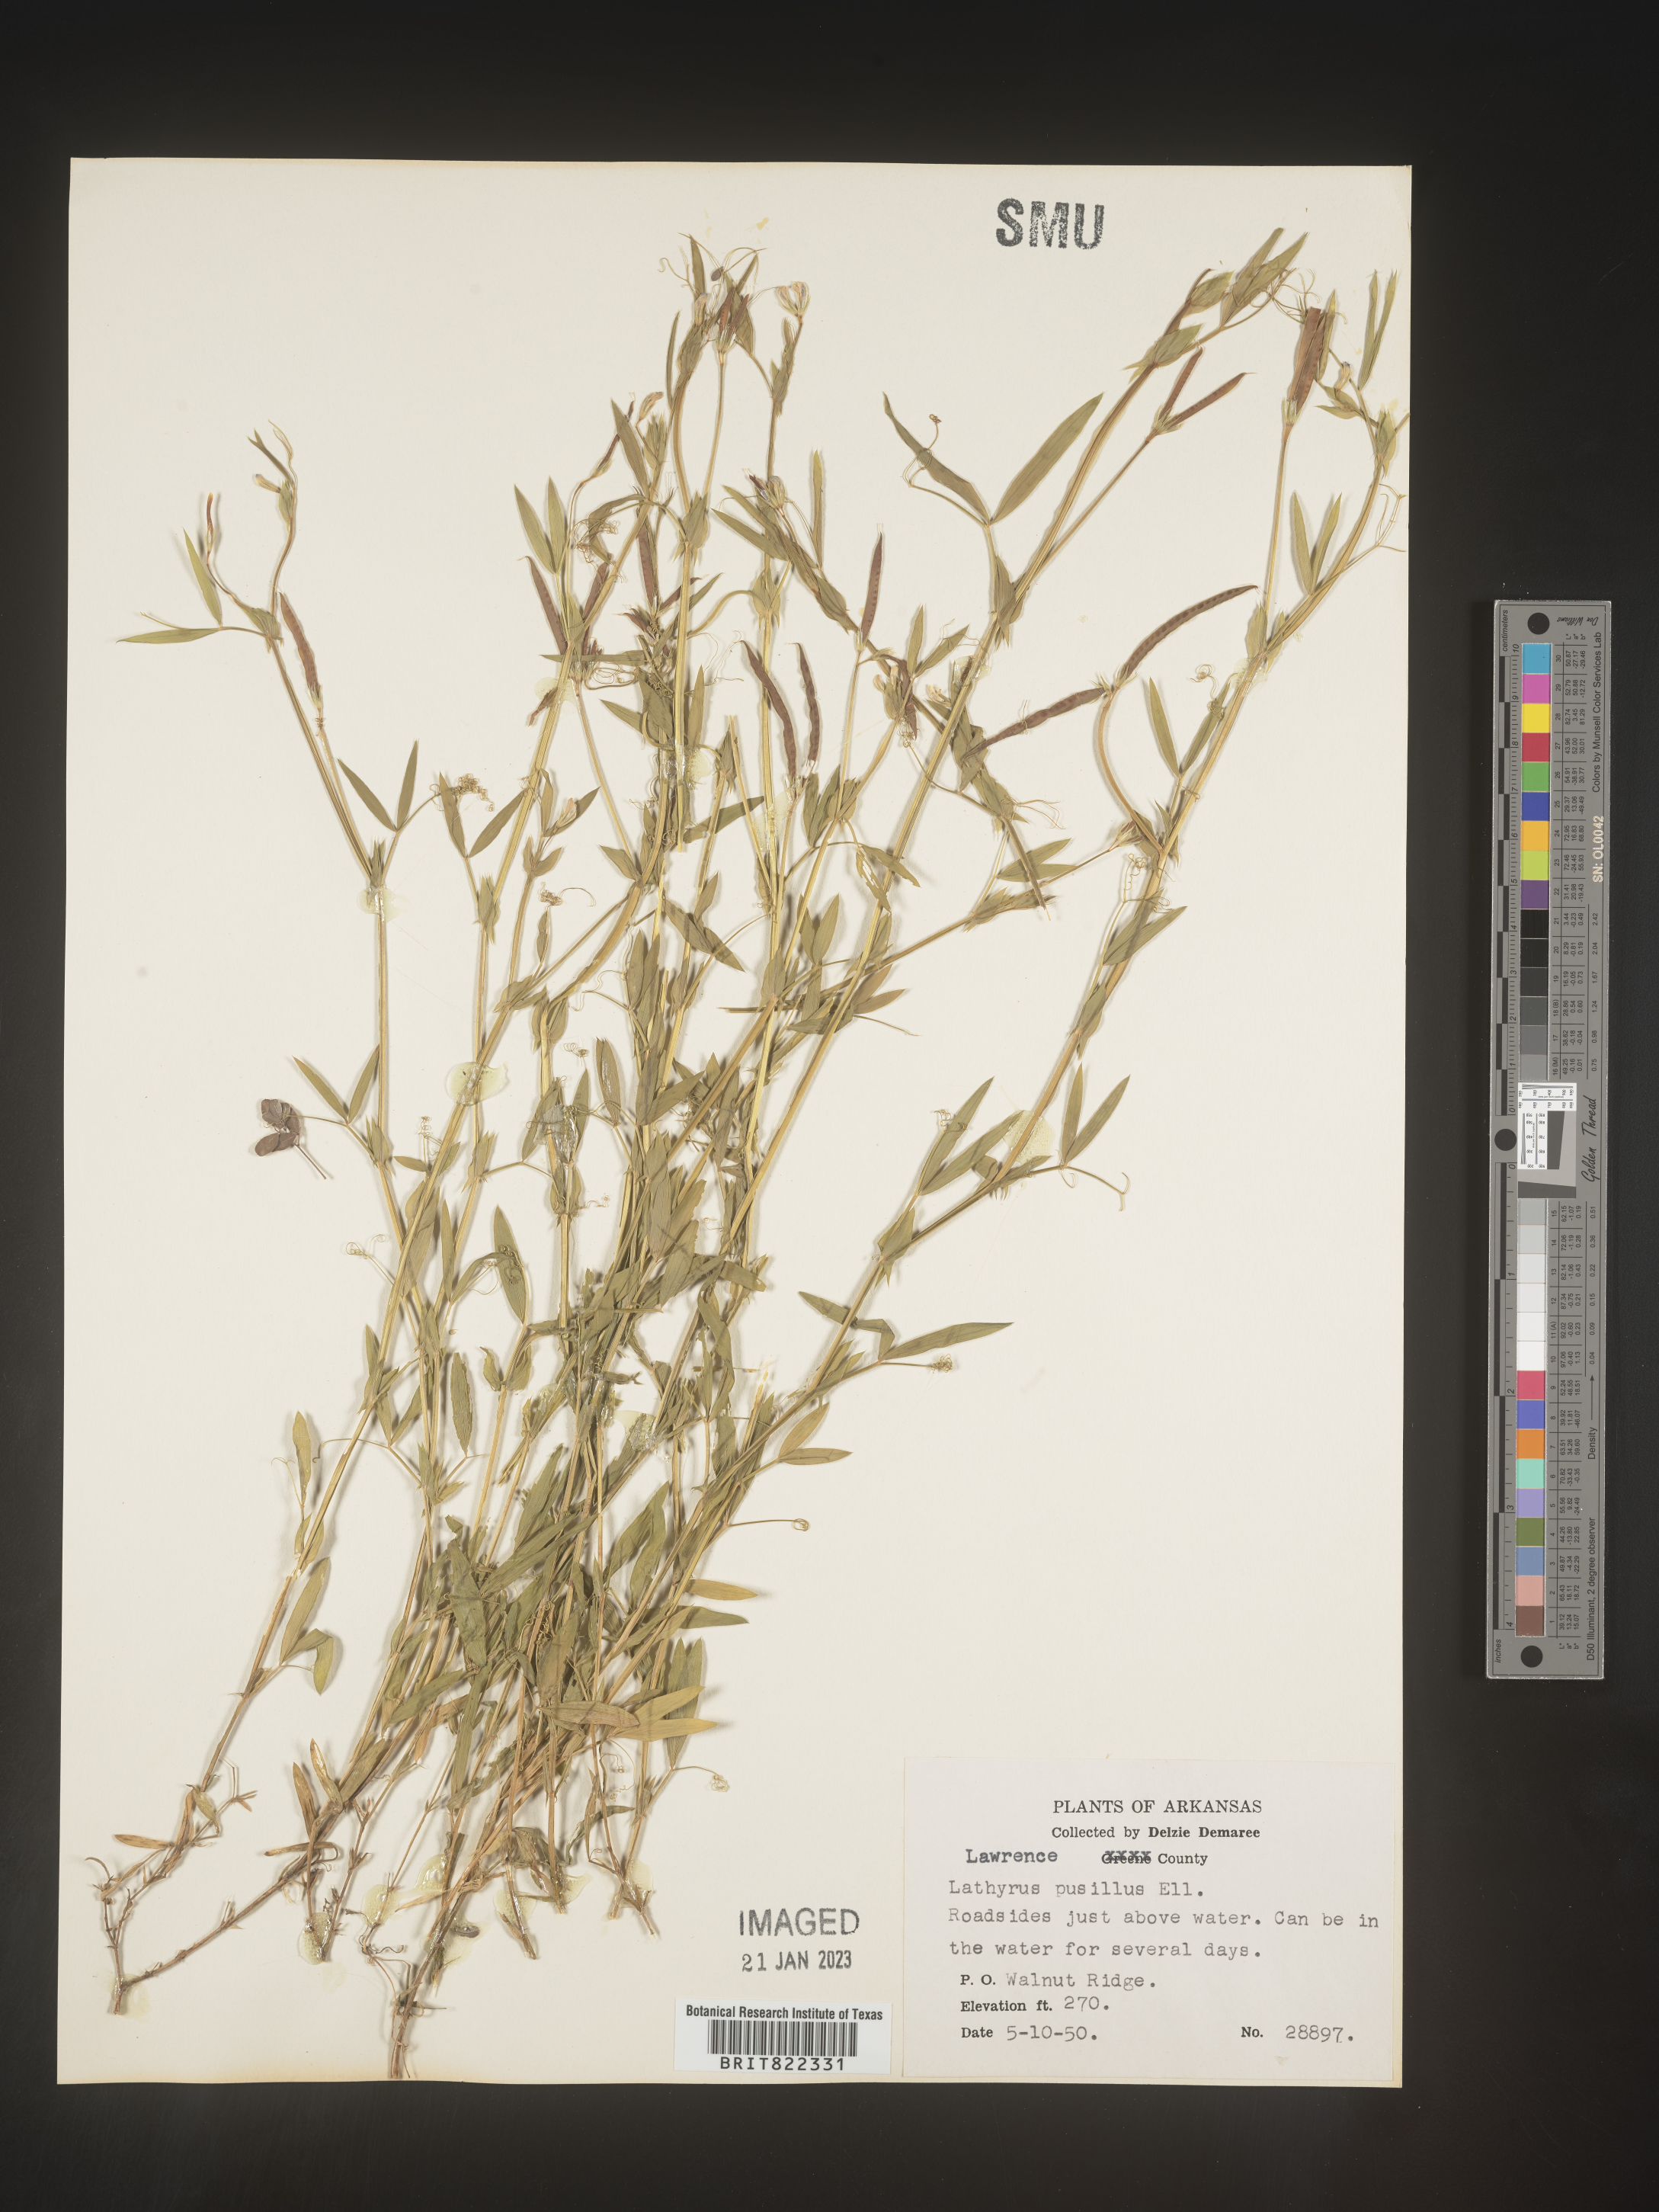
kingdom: Plantae
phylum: Tracheophyta
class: Magnoliopsida
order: Fabales
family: Fabaceae
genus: Lathyrus
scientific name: Lathyrus
